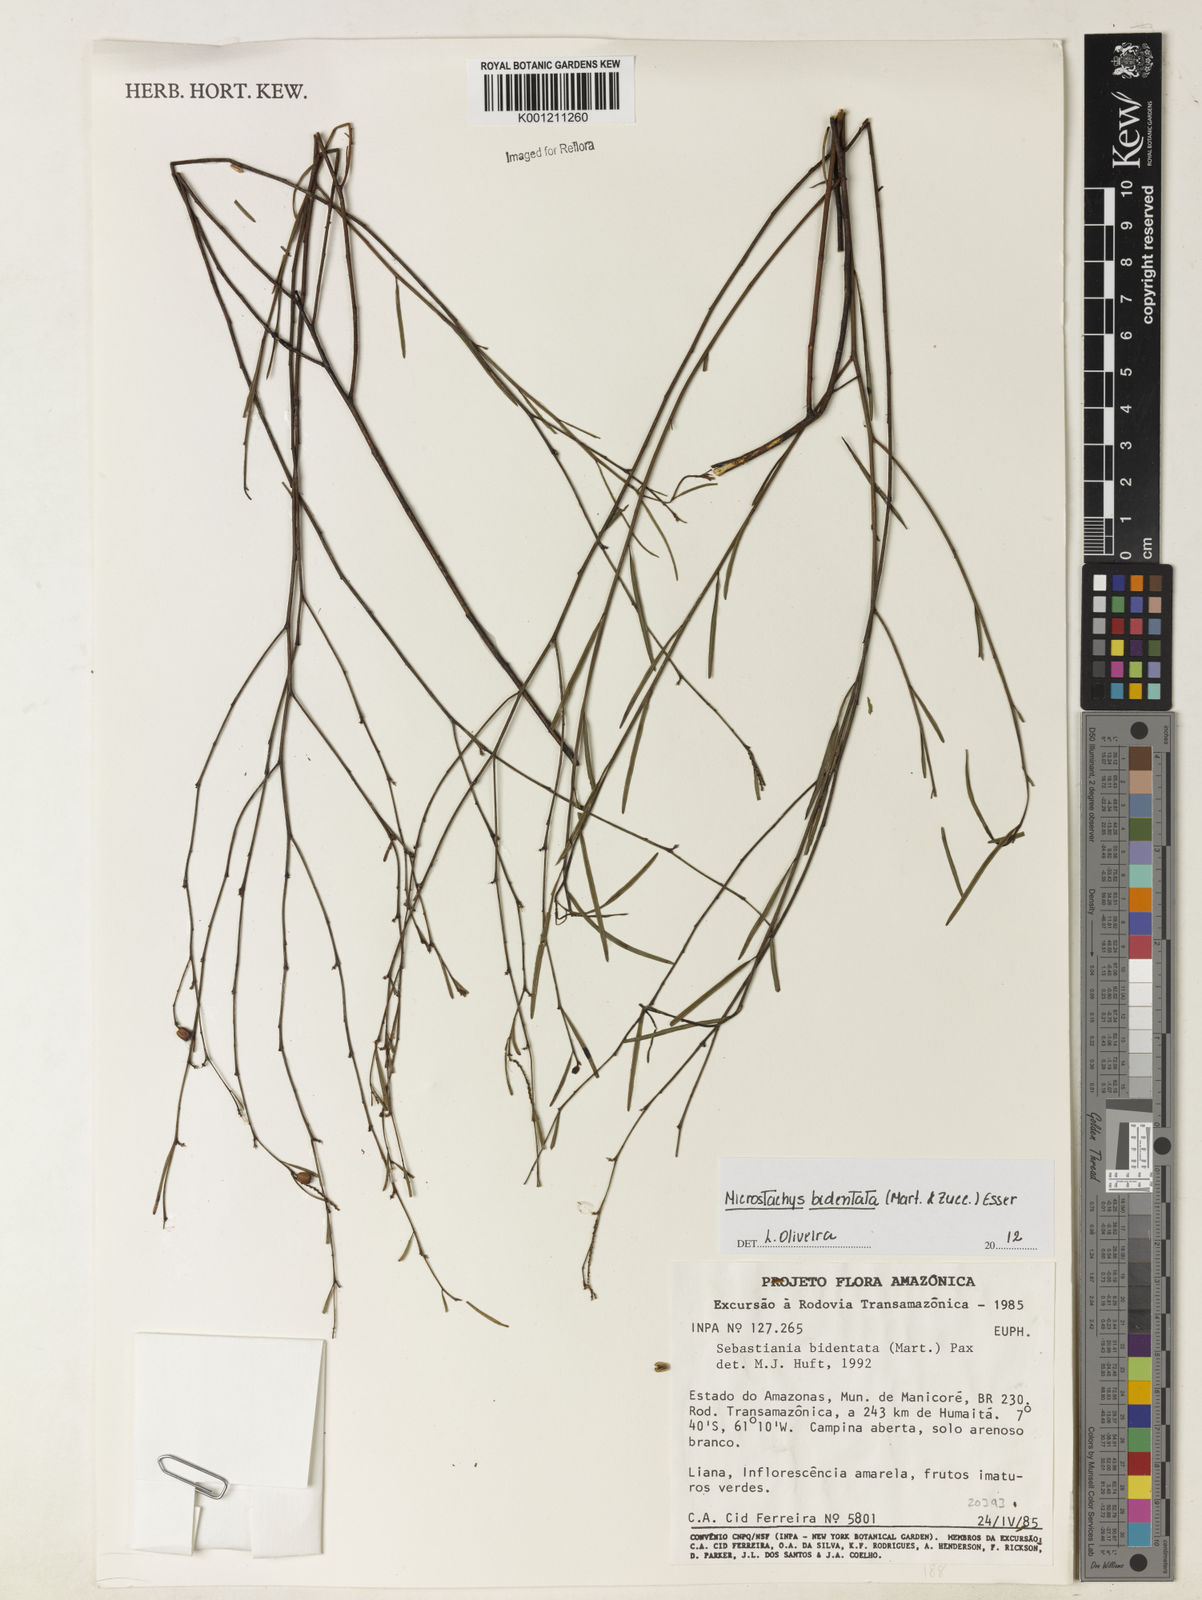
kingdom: Plantae
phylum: Tracheophyta
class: Magnoliopsida
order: Malpighiales
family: Euphorbiaceae
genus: Microstachys
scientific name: Microstachys bidentata
